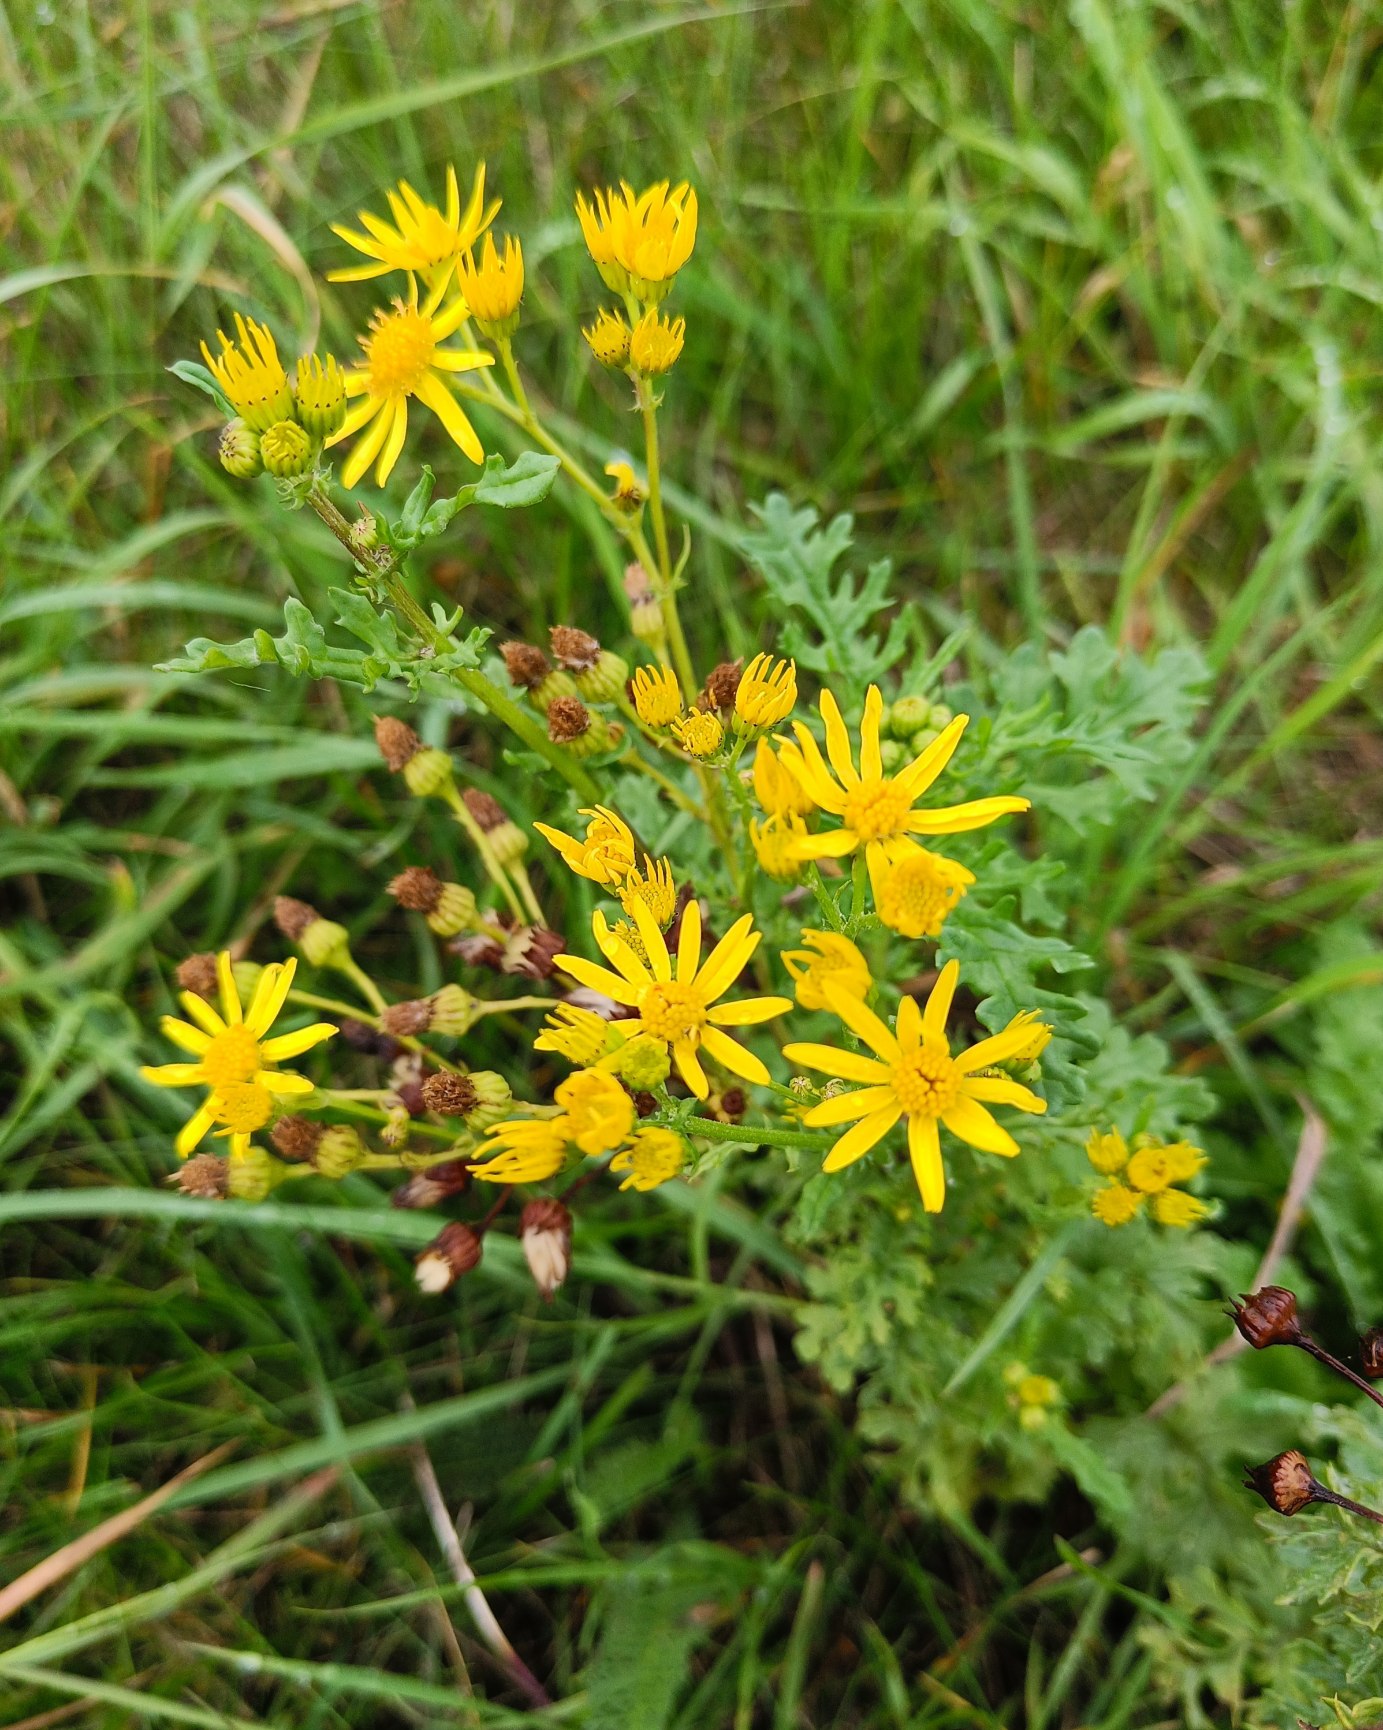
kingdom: Plantae
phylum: Tracheophyta
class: Magnoliopsida
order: Asterales
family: Asteraceae
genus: Jacobaea
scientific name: Jacobaea vulgaris
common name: Eng-brandbæger
